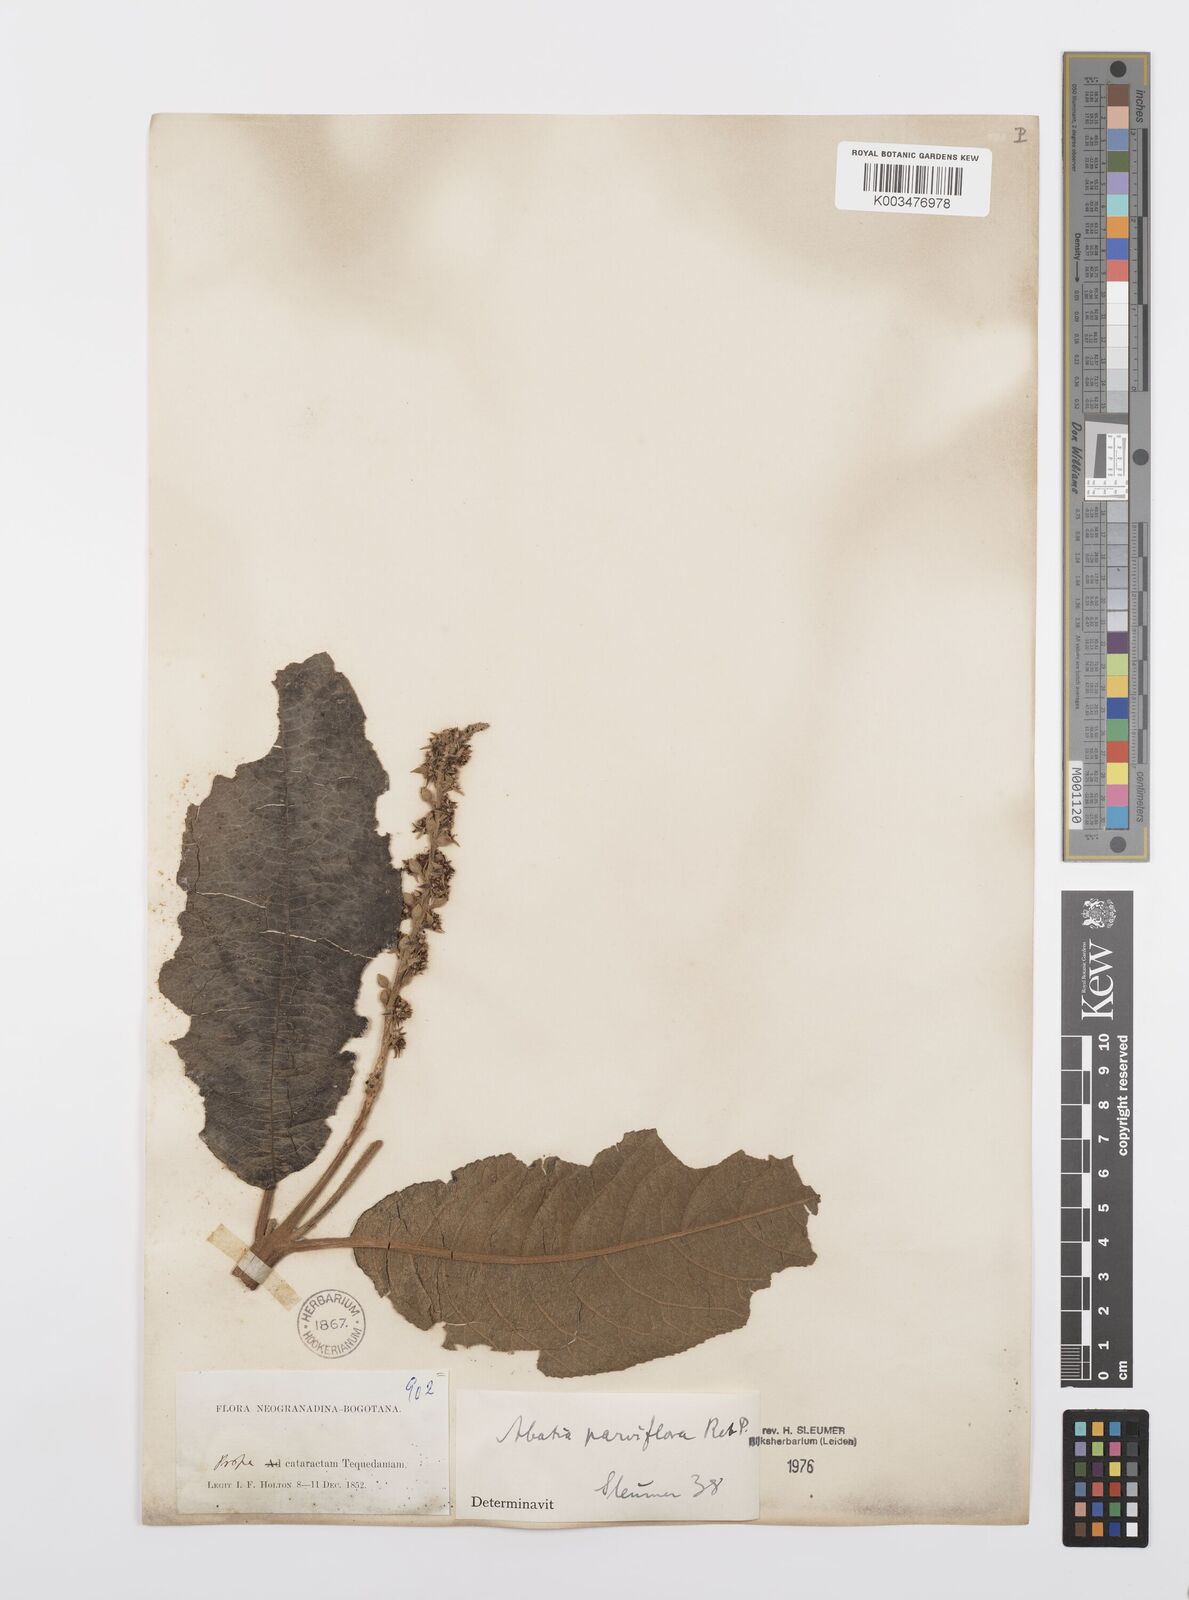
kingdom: Plantae
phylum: Tracheophyta
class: Magnoliopsida
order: Malpighiales
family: Salicaceae
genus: Abatia
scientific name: Abatia parviflora
